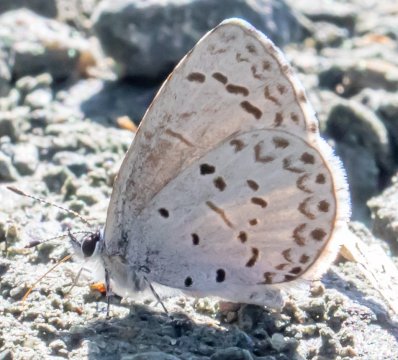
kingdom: Animalia
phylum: Arthropoda
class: Insecta
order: Lepidoptera
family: Lycaenidae
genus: Celastrina
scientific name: Celastrina serotina
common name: Cherry Gall Azure
